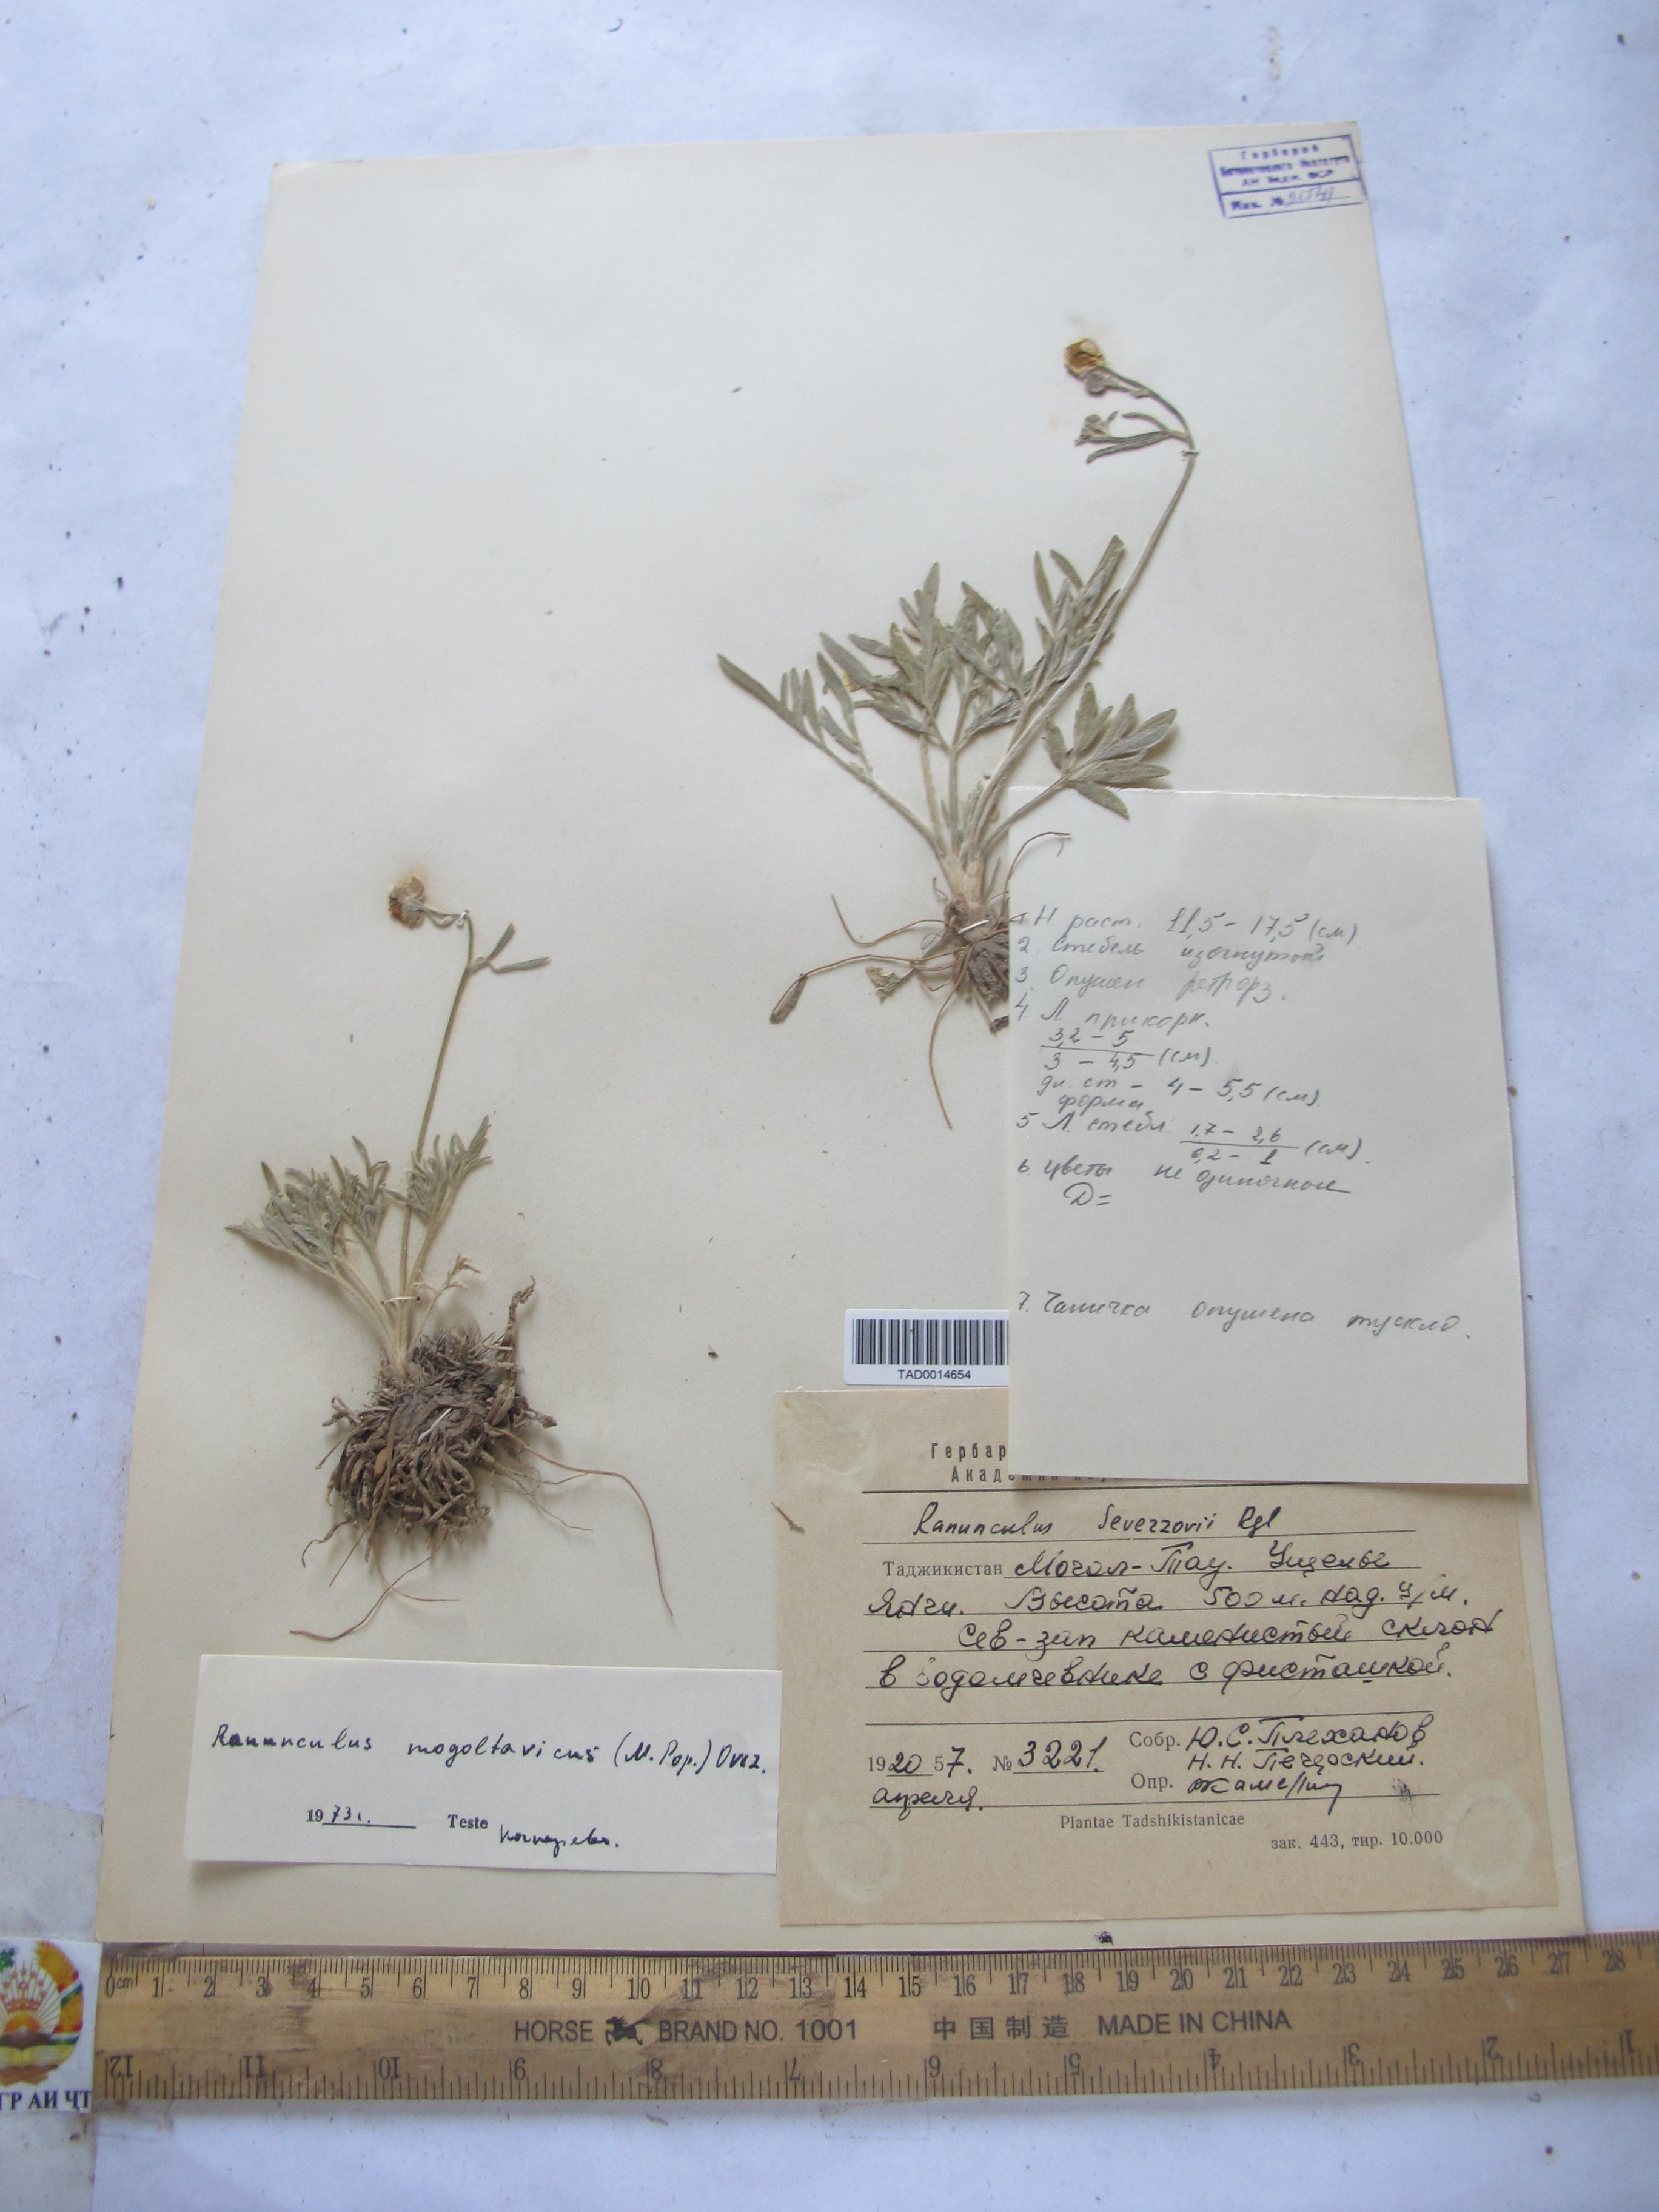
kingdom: Plantae
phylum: Tracheophyta
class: Magnoliopsida
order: Ranunculales
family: Ranunculaceae
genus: Ranunculus
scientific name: Ranunculus
